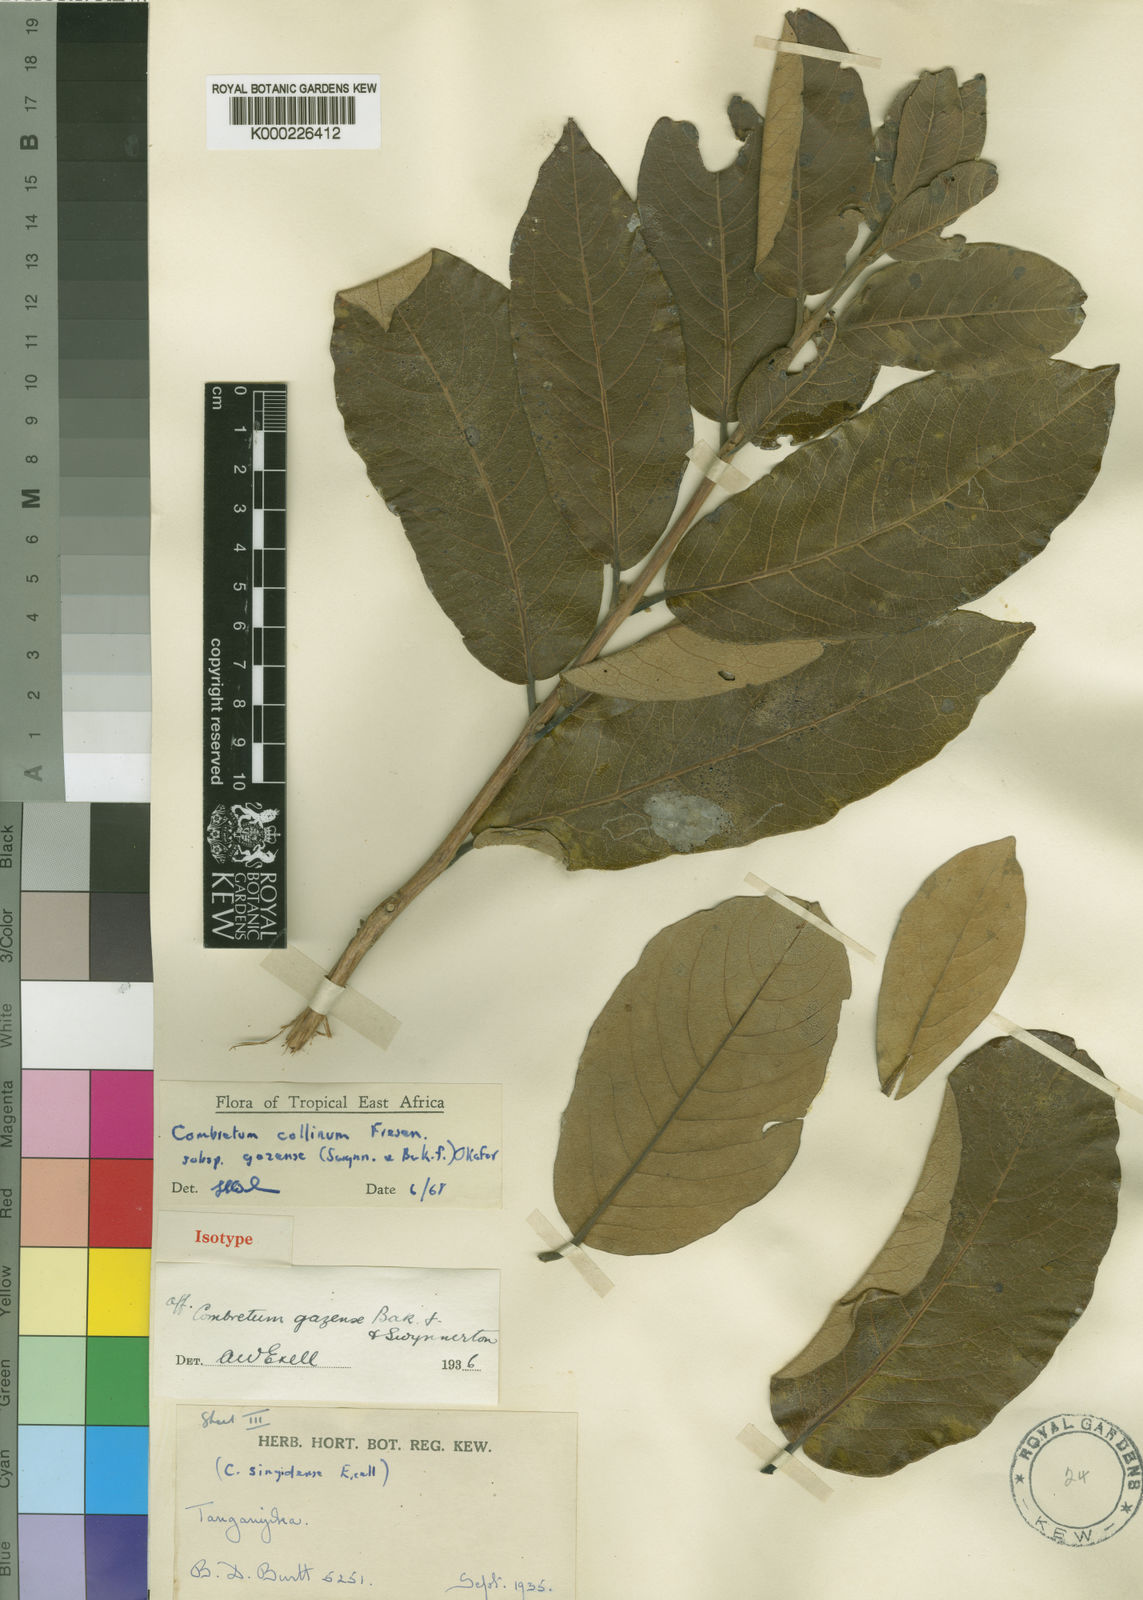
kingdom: Plantae
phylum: Tracheophyta
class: Magnoliopsida
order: Myrtales
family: Combretaceae
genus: Combretum
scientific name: Combretum collinum
